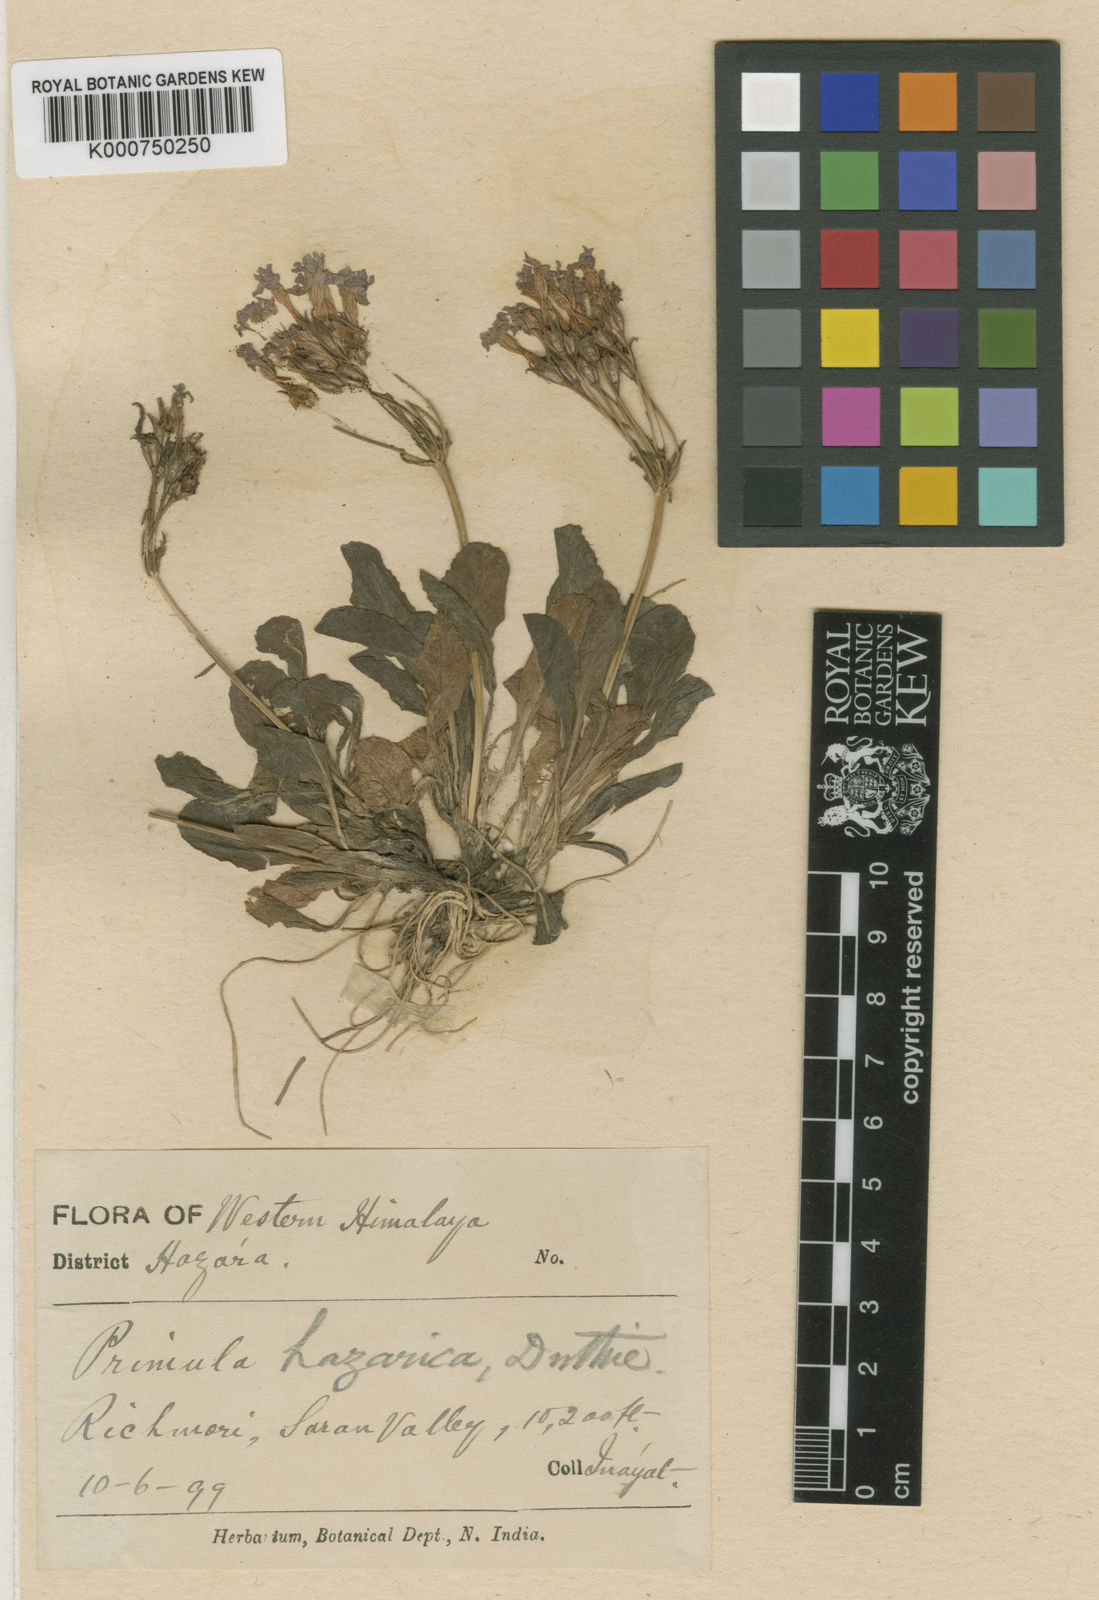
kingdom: Plantae
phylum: Tracheophyta
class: Magnoliopsida
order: Ericales
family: Primulaceae
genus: Primula
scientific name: Primula hazarica
